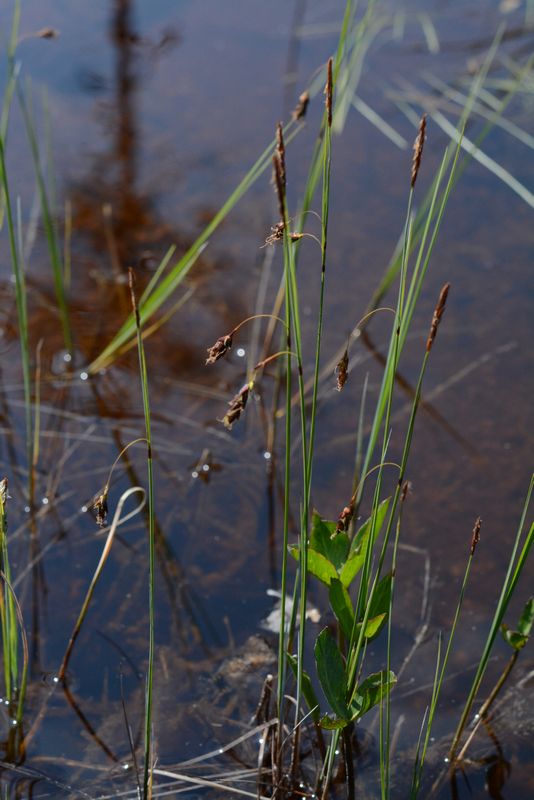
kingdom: Plantae
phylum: Tracheophyta
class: Liliopsida
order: Poales
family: Cyperaceae
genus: Carex
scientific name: Carex rariflora
